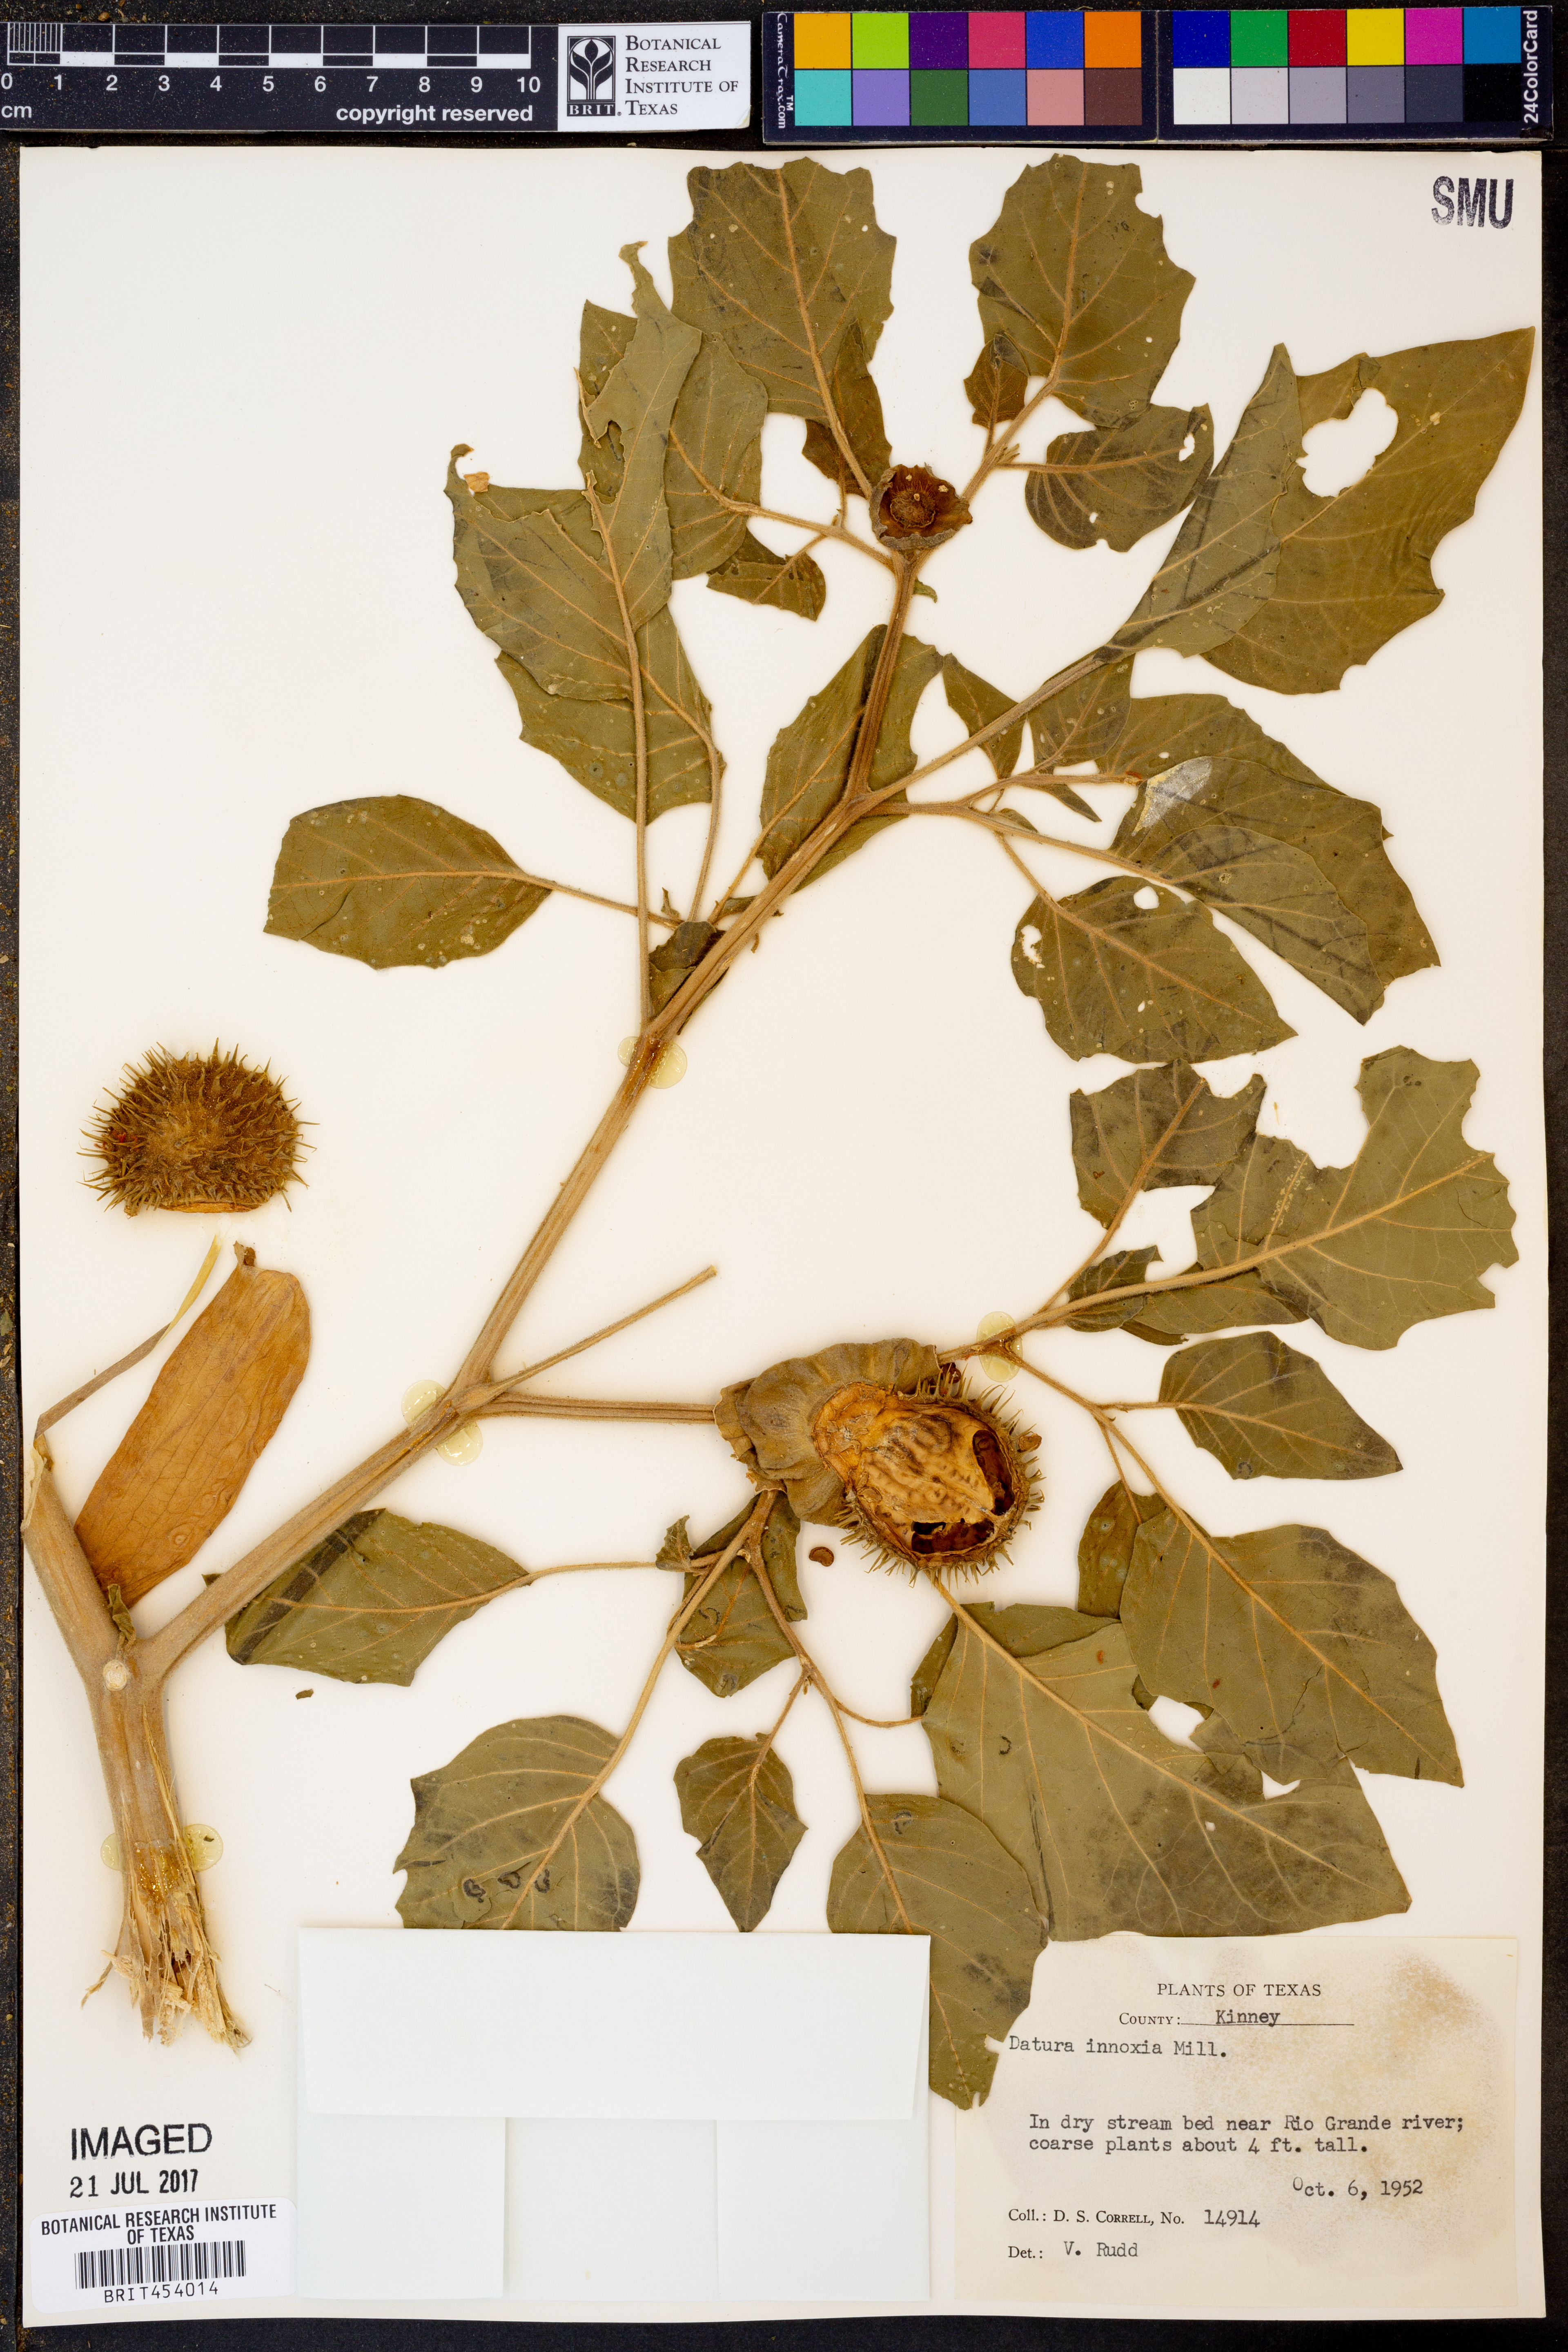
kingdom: Plantae
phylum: Tracheophyta
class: Magnoliopsida
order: Solanales
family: Solanaceae
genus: Datura
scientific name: Datura innoxia
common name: Downy thorn-apple
